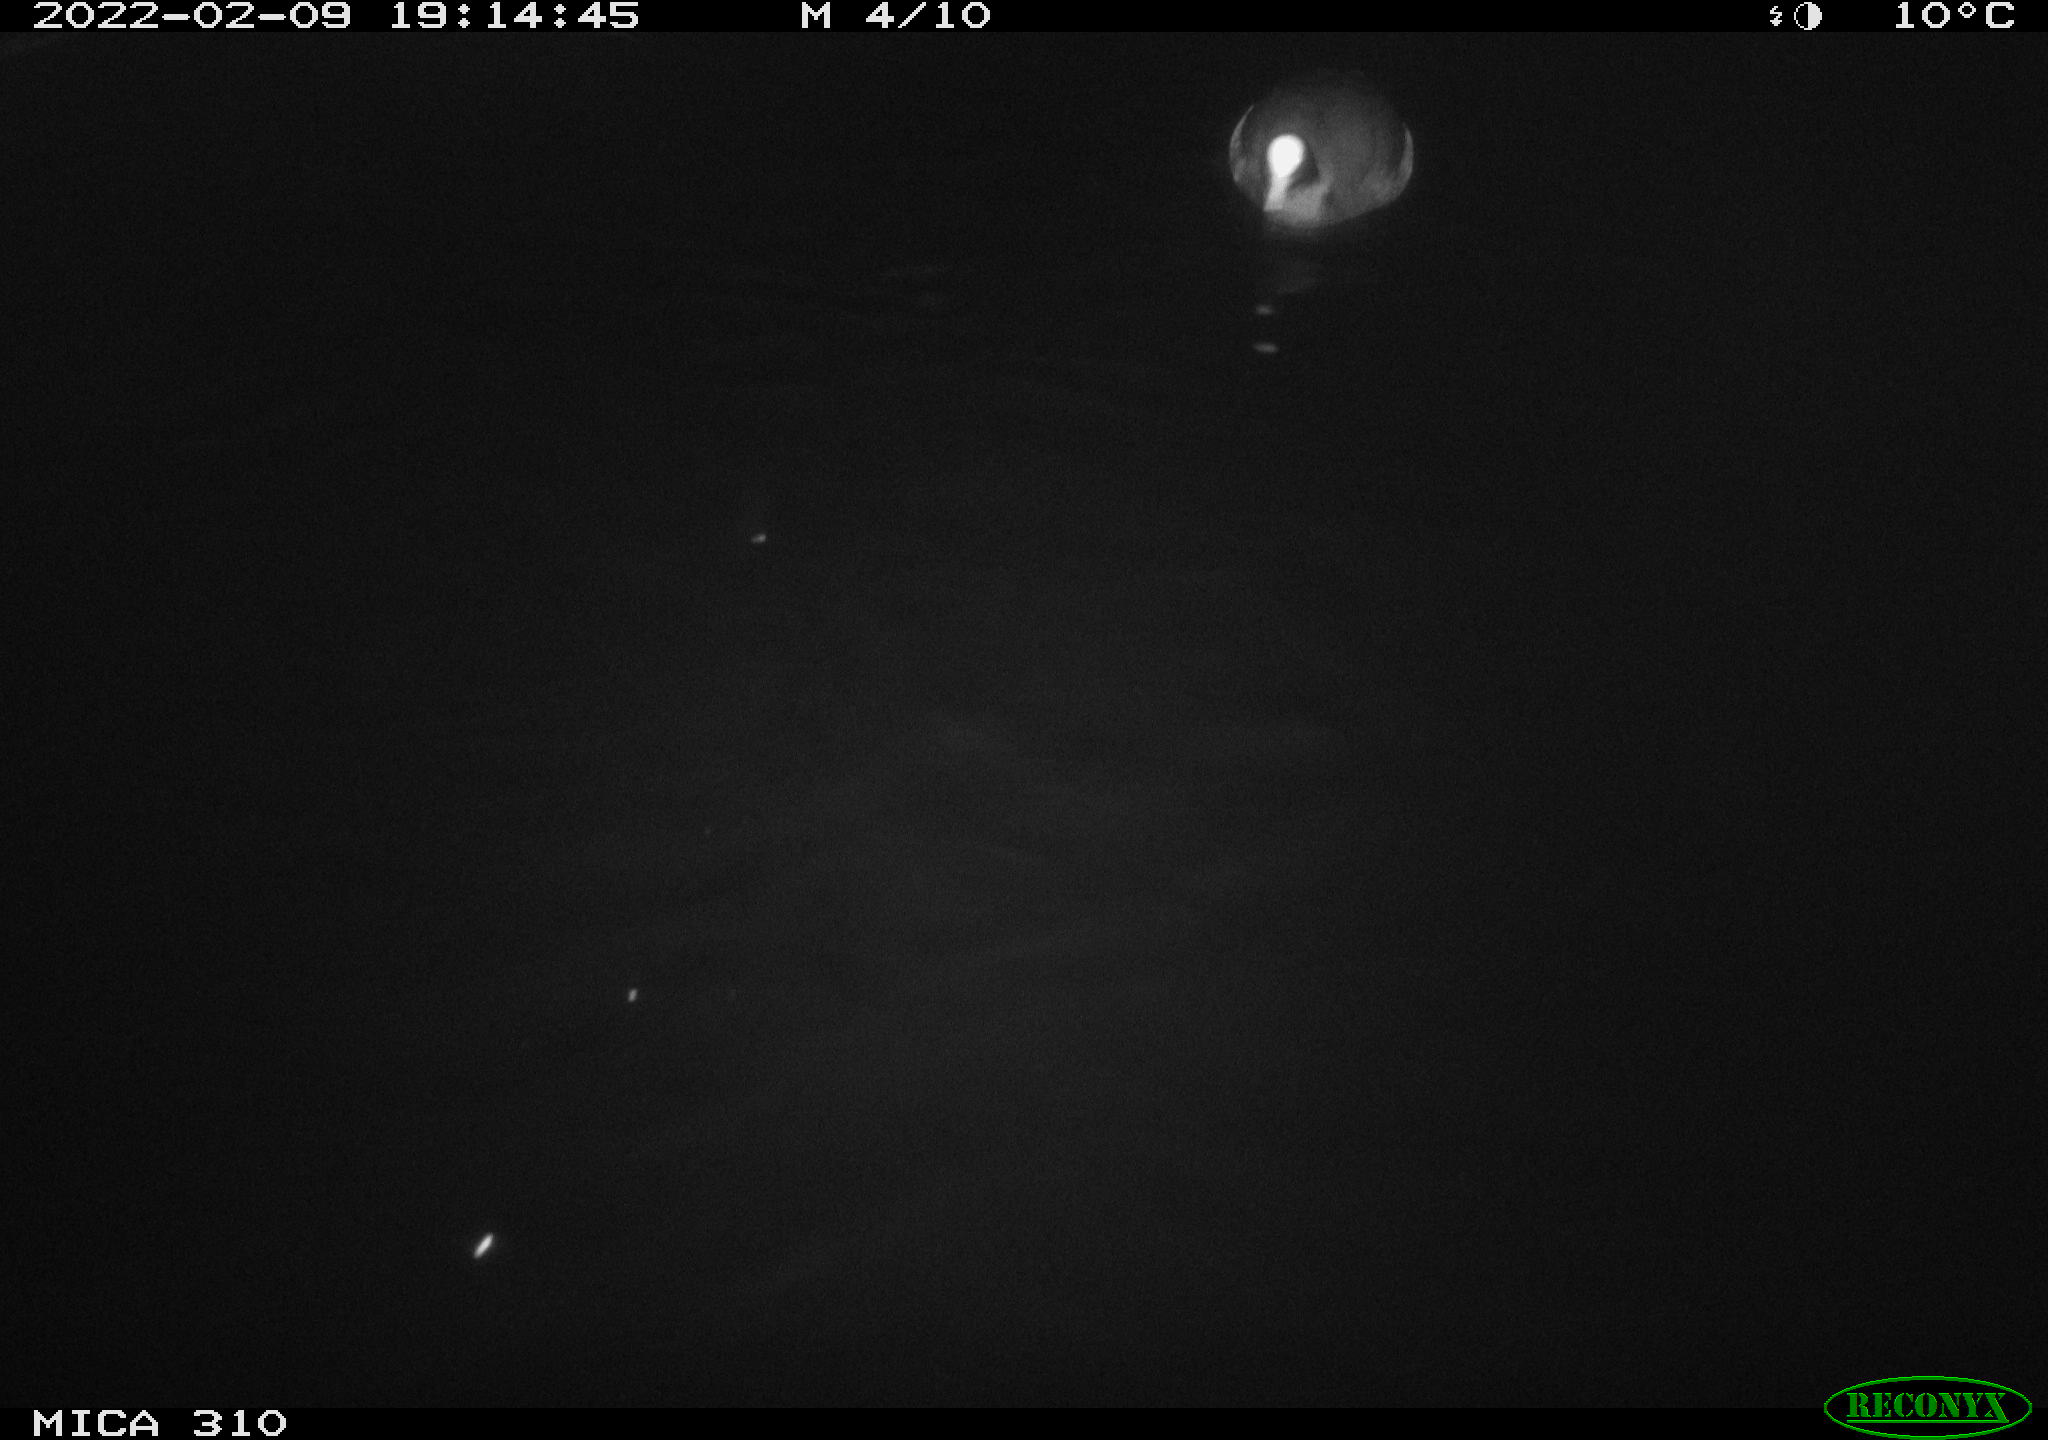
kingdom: Animalia
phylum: Chordata
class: Aves
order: Gruiformes
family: Rallidae
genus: Fulica
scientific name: Fulica atra
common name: Eurasian coot
